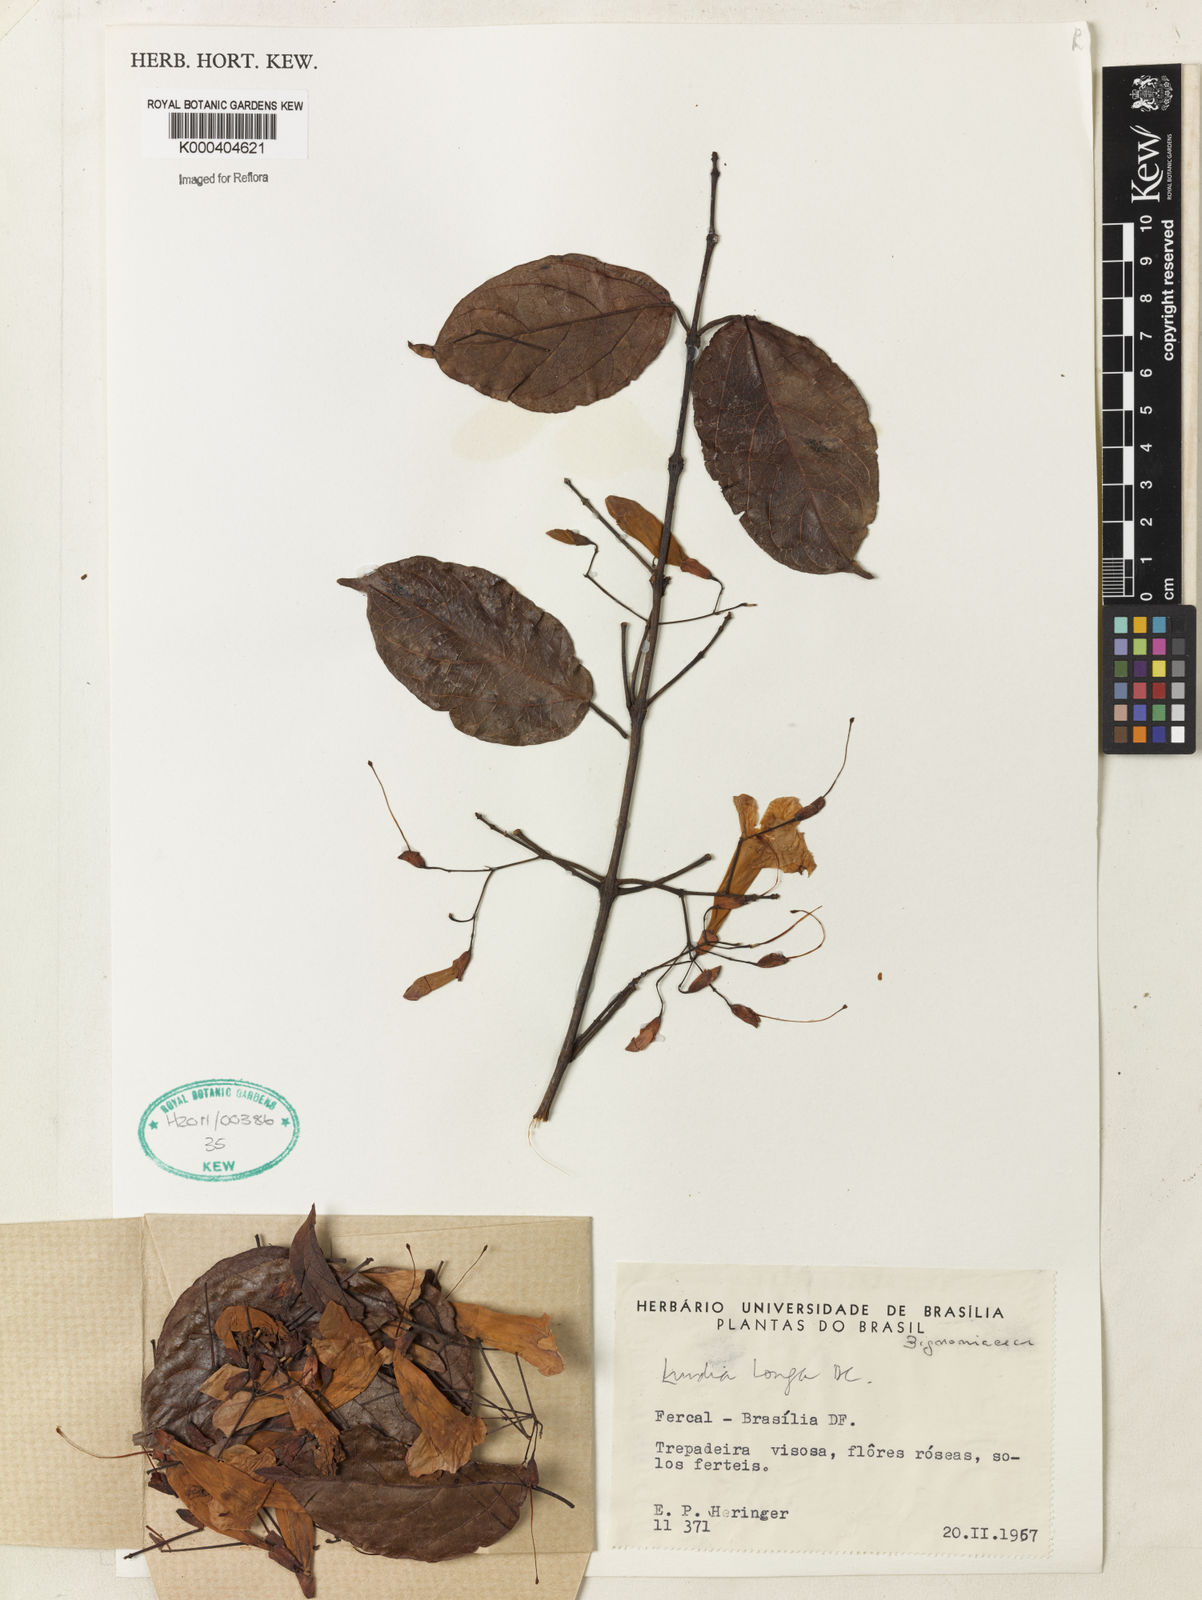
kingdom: Plantae
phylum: Tracheophyta
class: Magnoliopsida
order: Lamiales
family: Bignoniaceae
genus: Lundia
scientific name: Lundia longa
